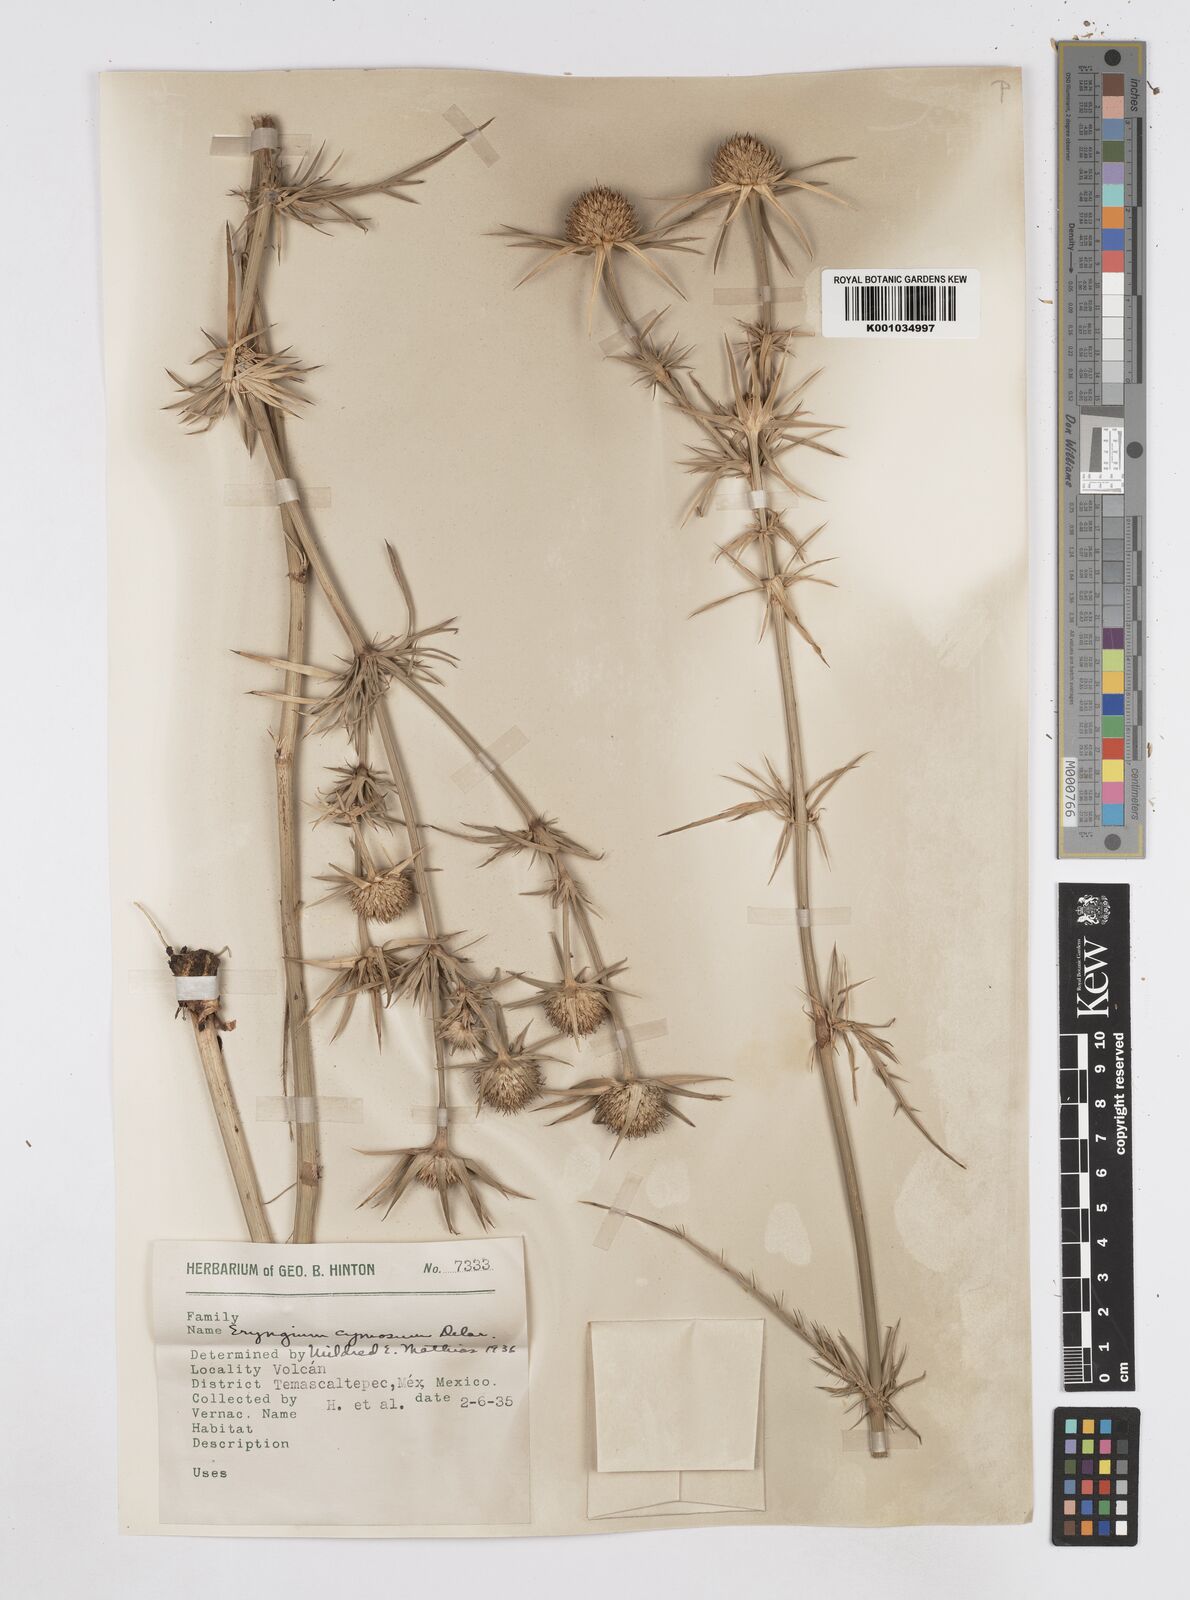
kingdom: Plantae
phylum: Tracheophyta
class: Magnoliopsida
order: Apiales
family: Apiaceae
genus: Eryngium
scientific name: Eryngium cymosum
